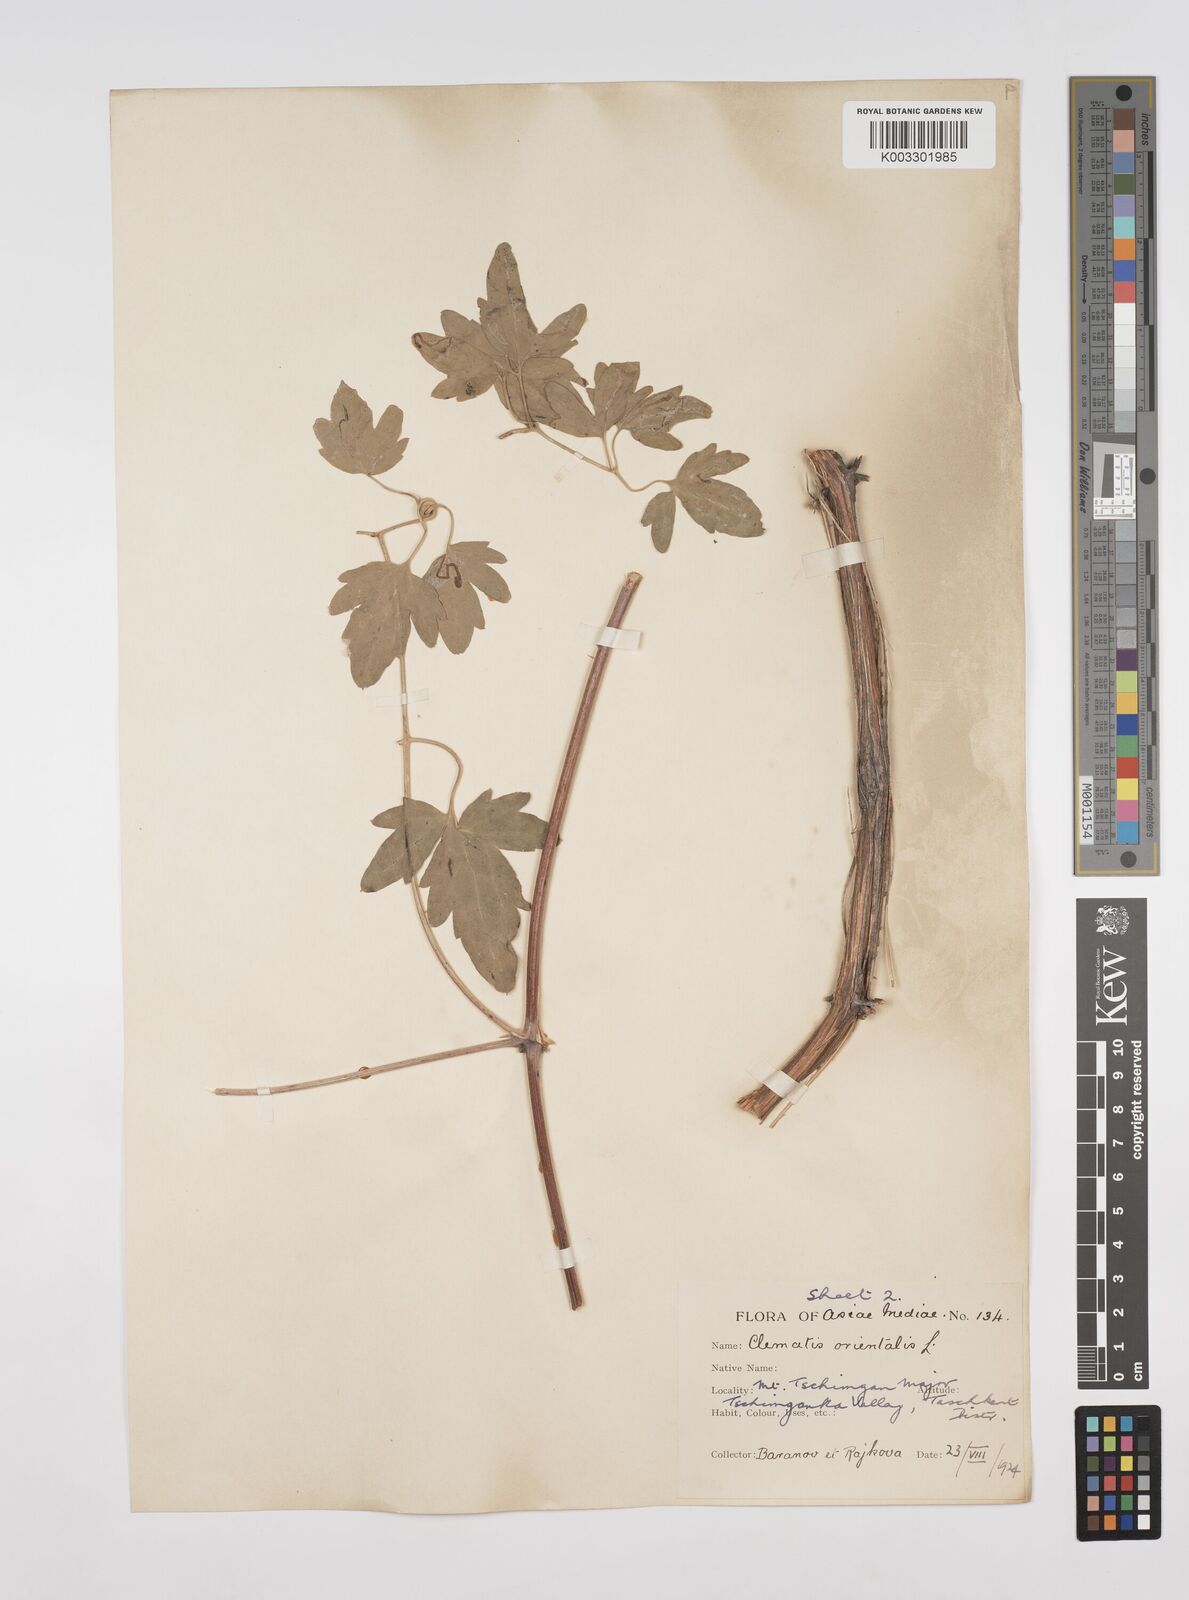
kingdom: Plantae
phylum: Tracheophyta
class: Magnoliopsida
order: Ranunculales
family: Ranunculaceae
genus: Clematis
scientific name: Clematis orientalis
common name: Oriental virgin's-bower
